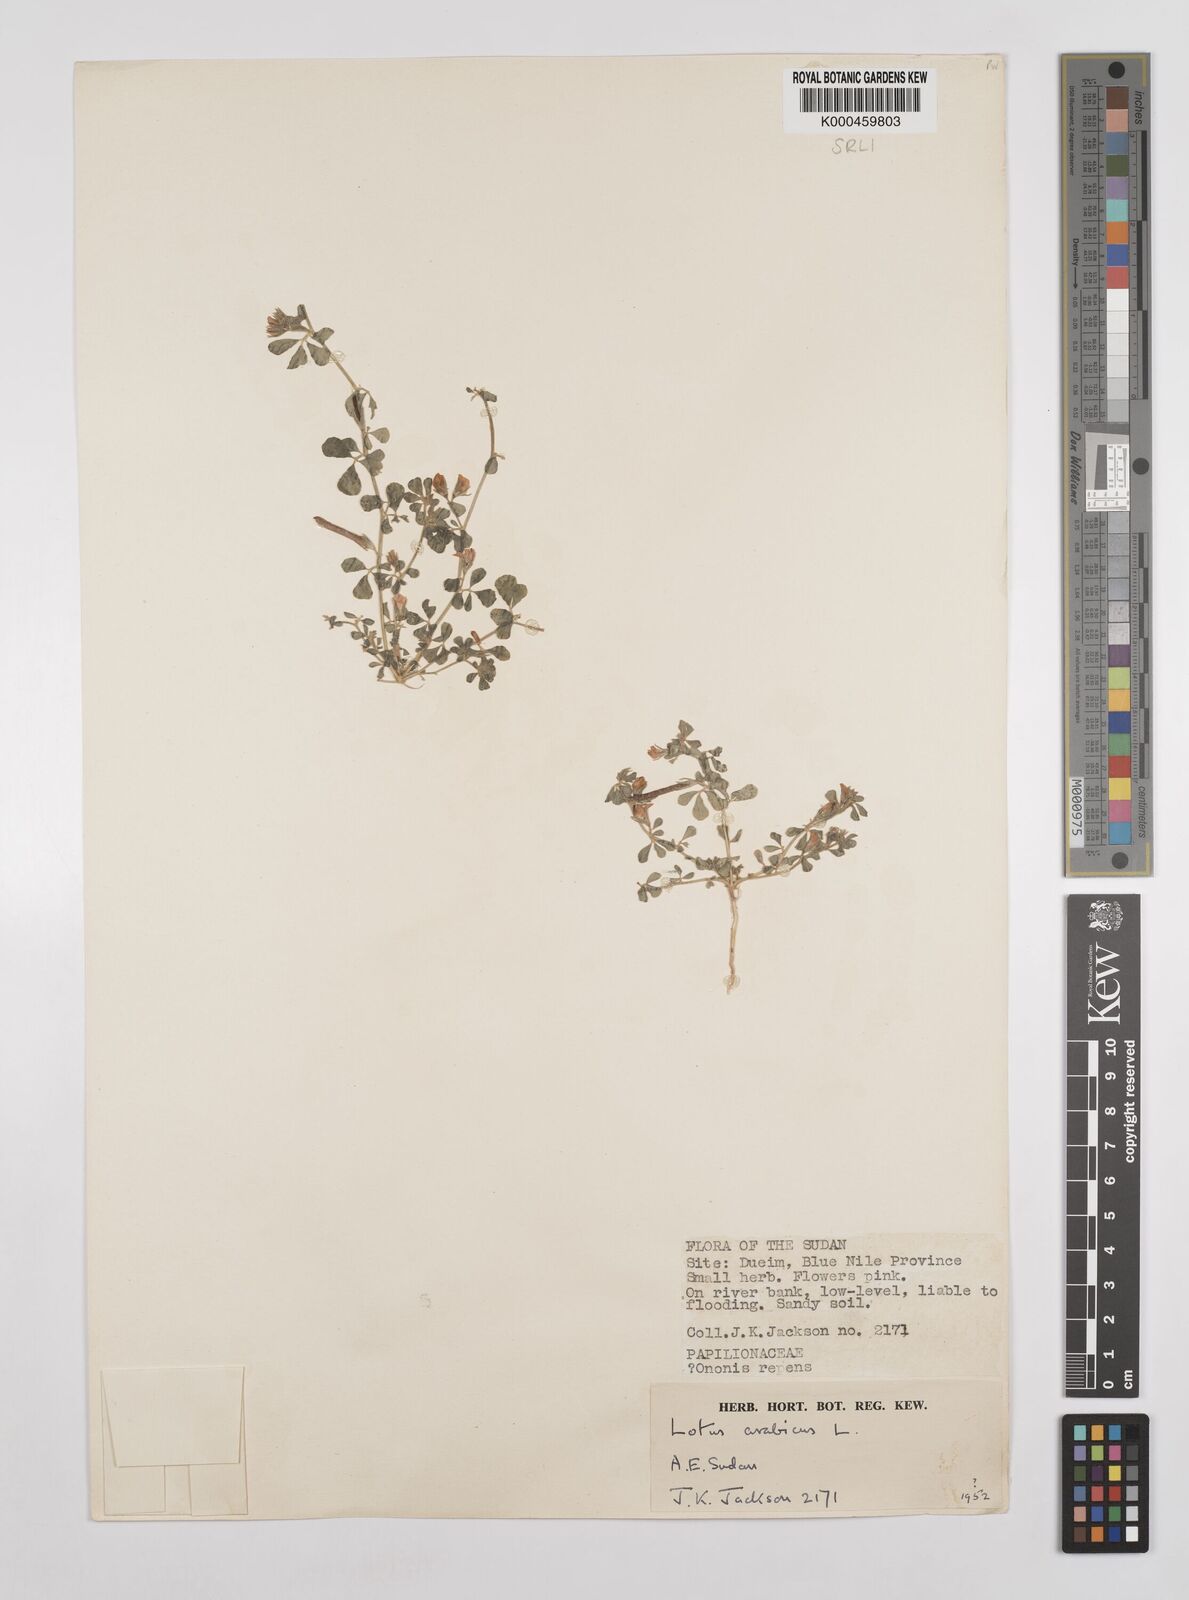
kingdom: Plantae
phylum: Tracheophyta
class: Magnoliopsida
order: Fabales
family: Fabaceae
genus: Lotus
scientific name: Lotus arabicus
